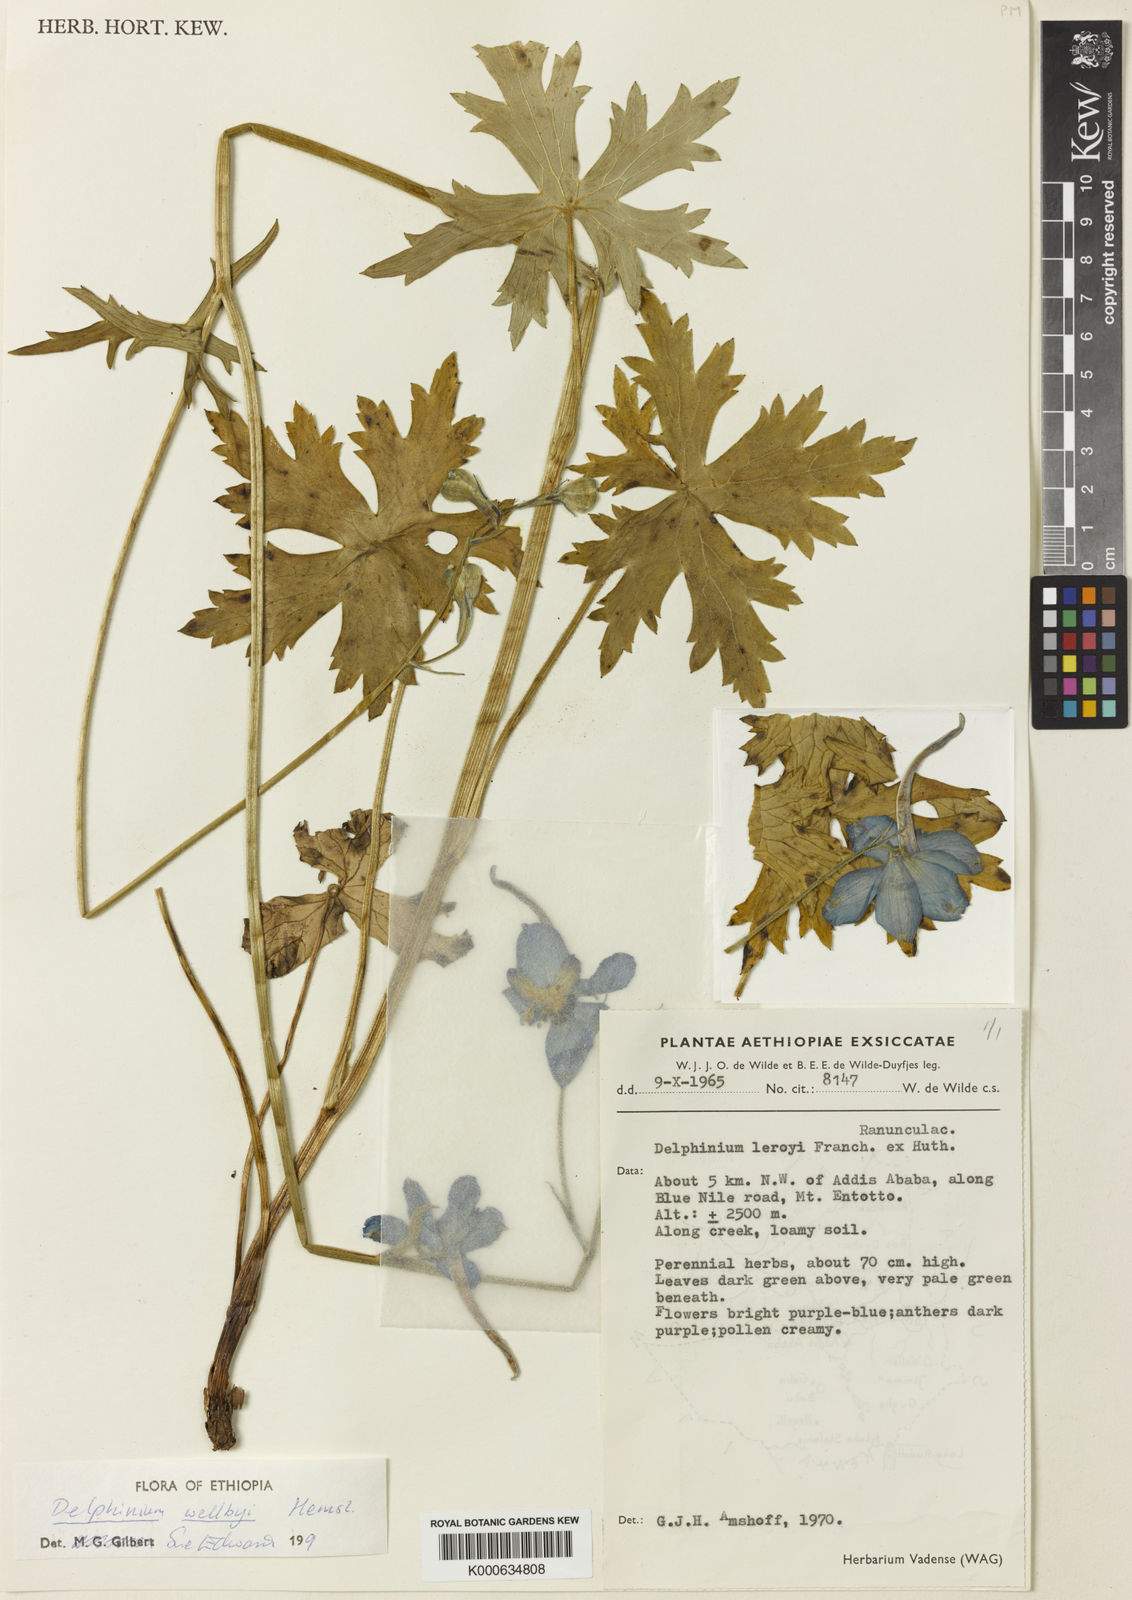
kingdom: Plantae
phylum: Tracheophyta
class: Magnoliopsida
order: Ranunculales
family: Ranunculaceae
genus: Delphinium
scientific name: Delphinium leroyi
